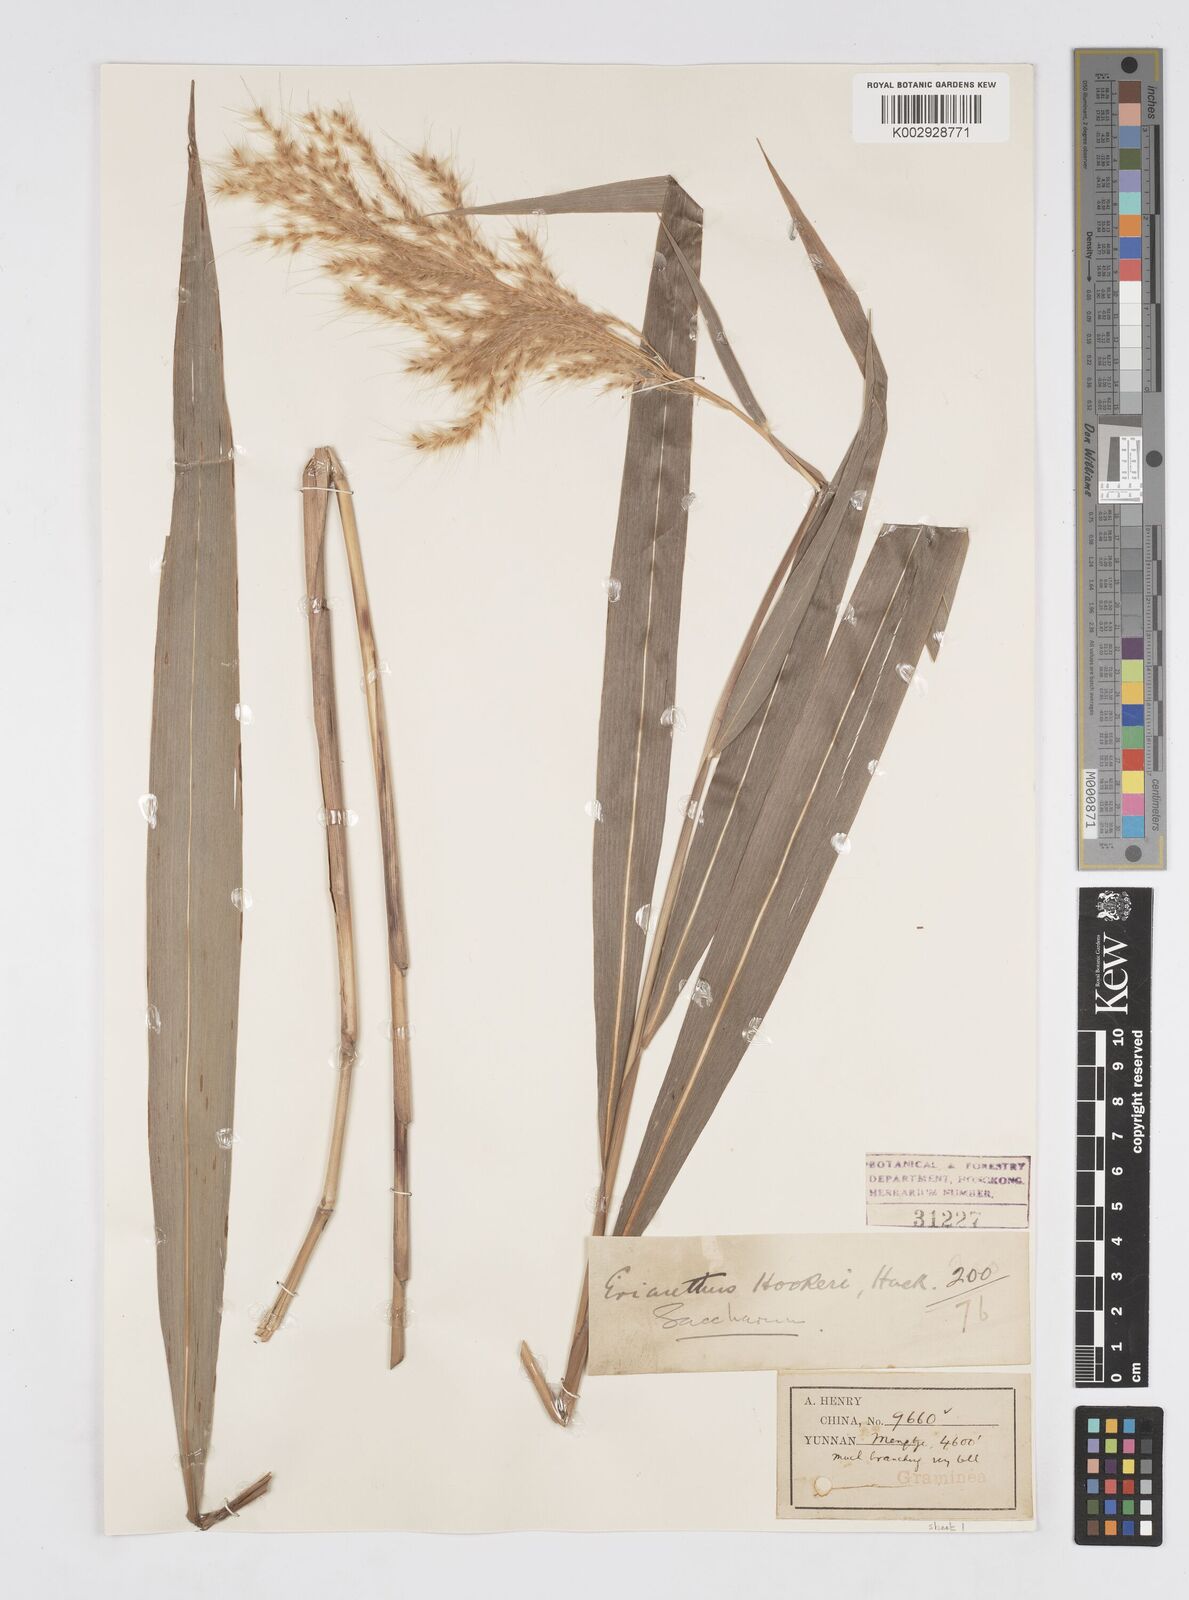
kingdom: Plantae
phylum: Tracheophyta
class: Liliopsida
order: Poales
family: Poaceae
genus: Melinis
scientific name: Melinis longiseta
